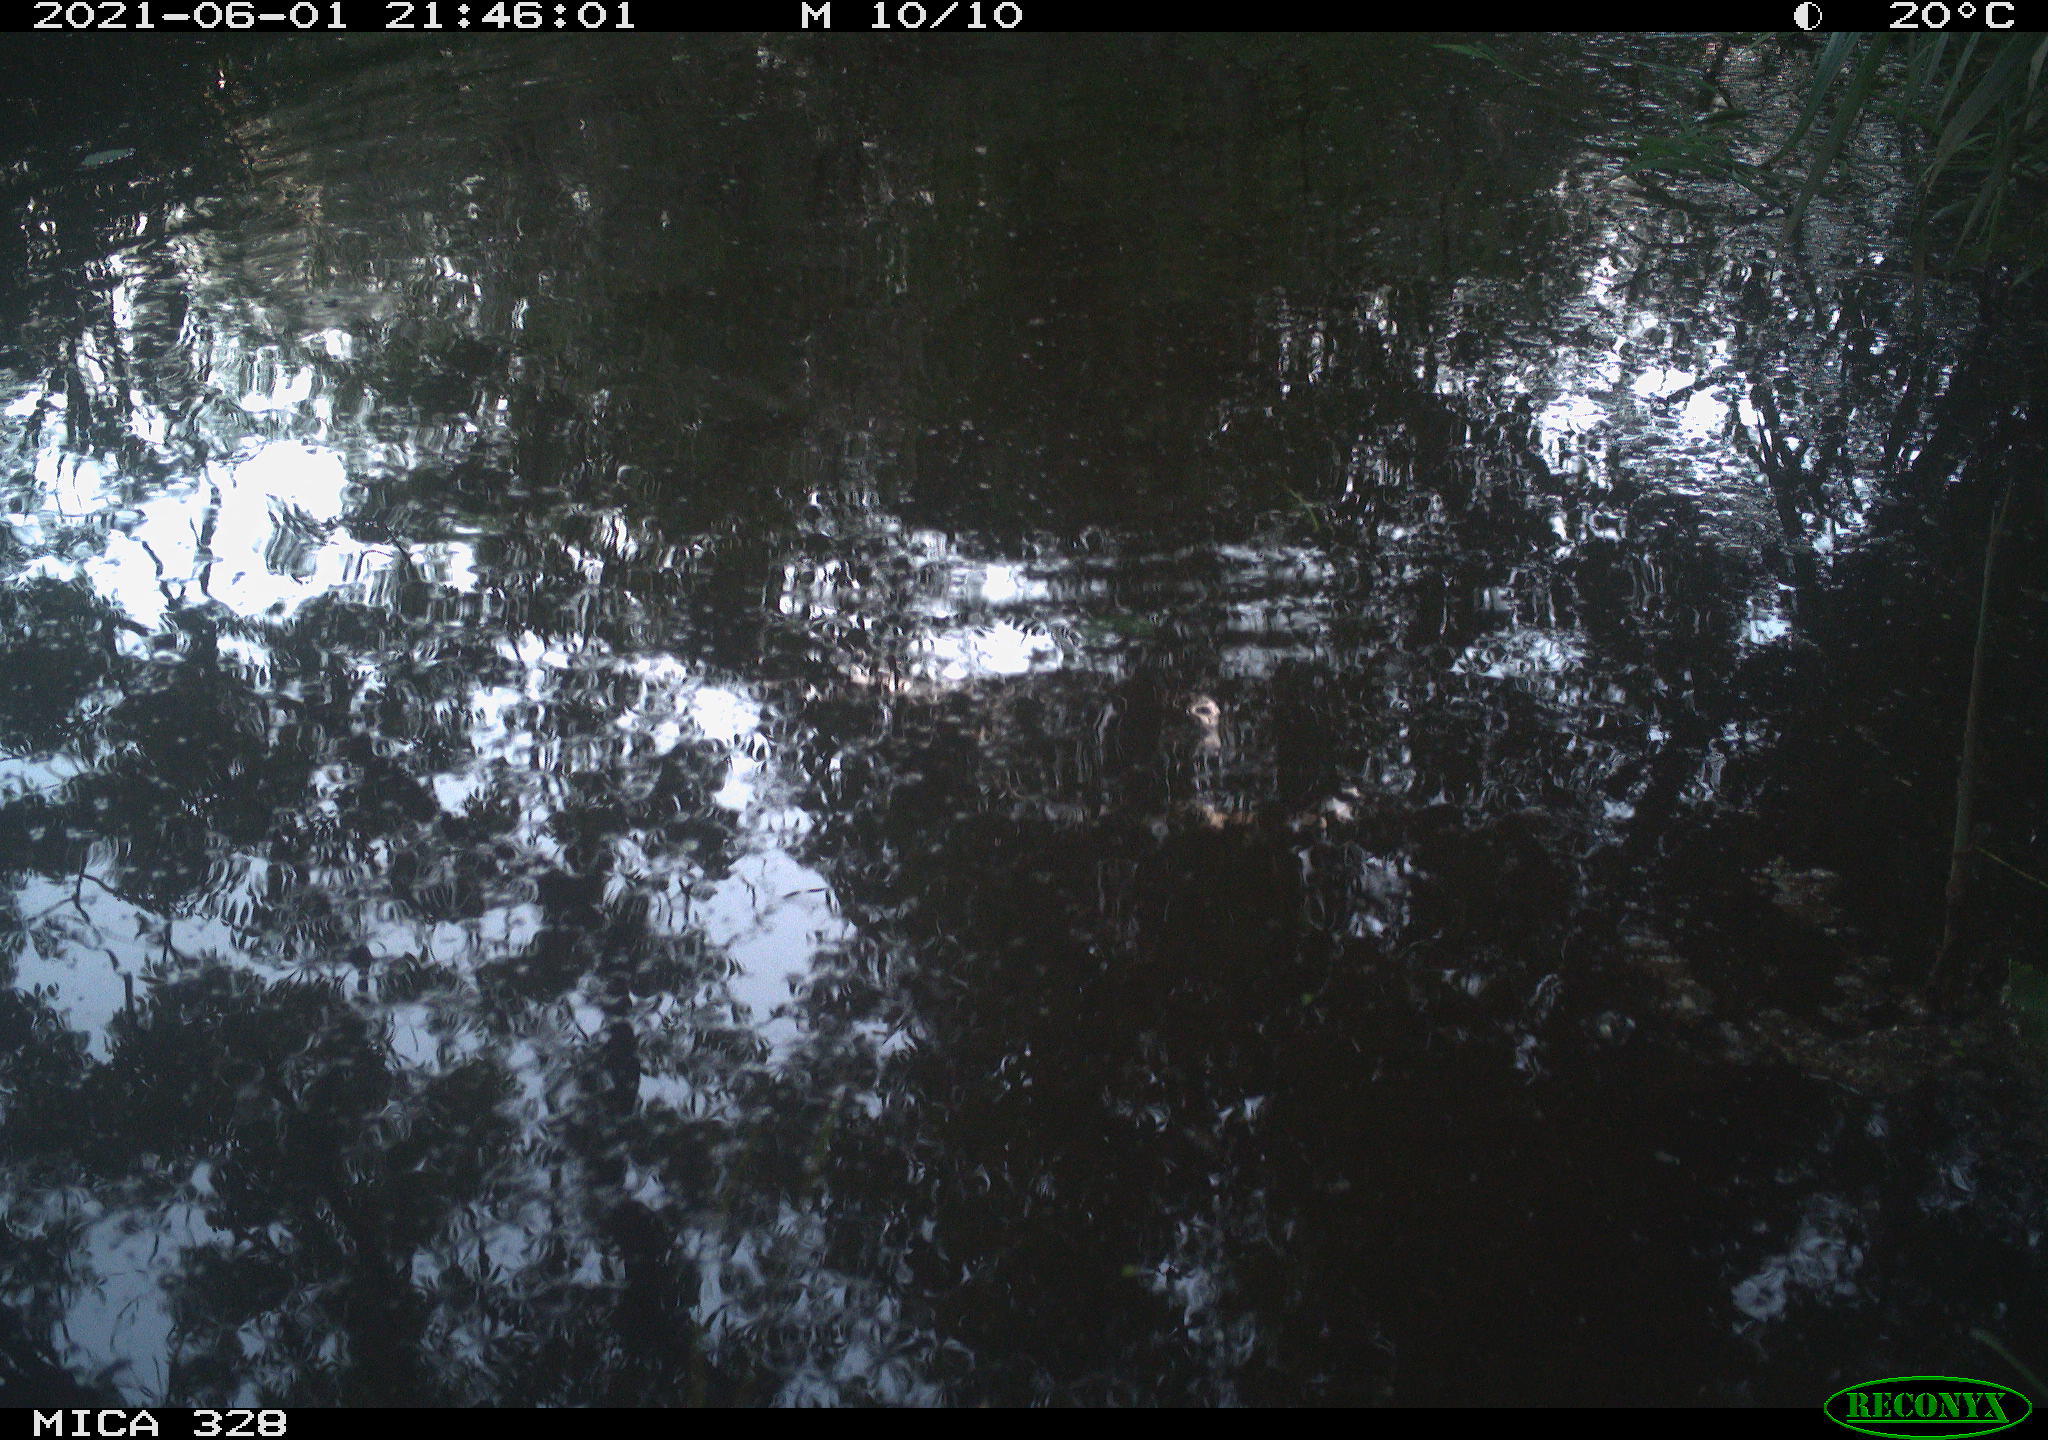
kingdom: Animalia
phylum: Chordata
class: Aves
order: Anseriformes
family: Anatidae
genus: Aix
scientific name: Aix galericulata
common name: Mandarin duck
